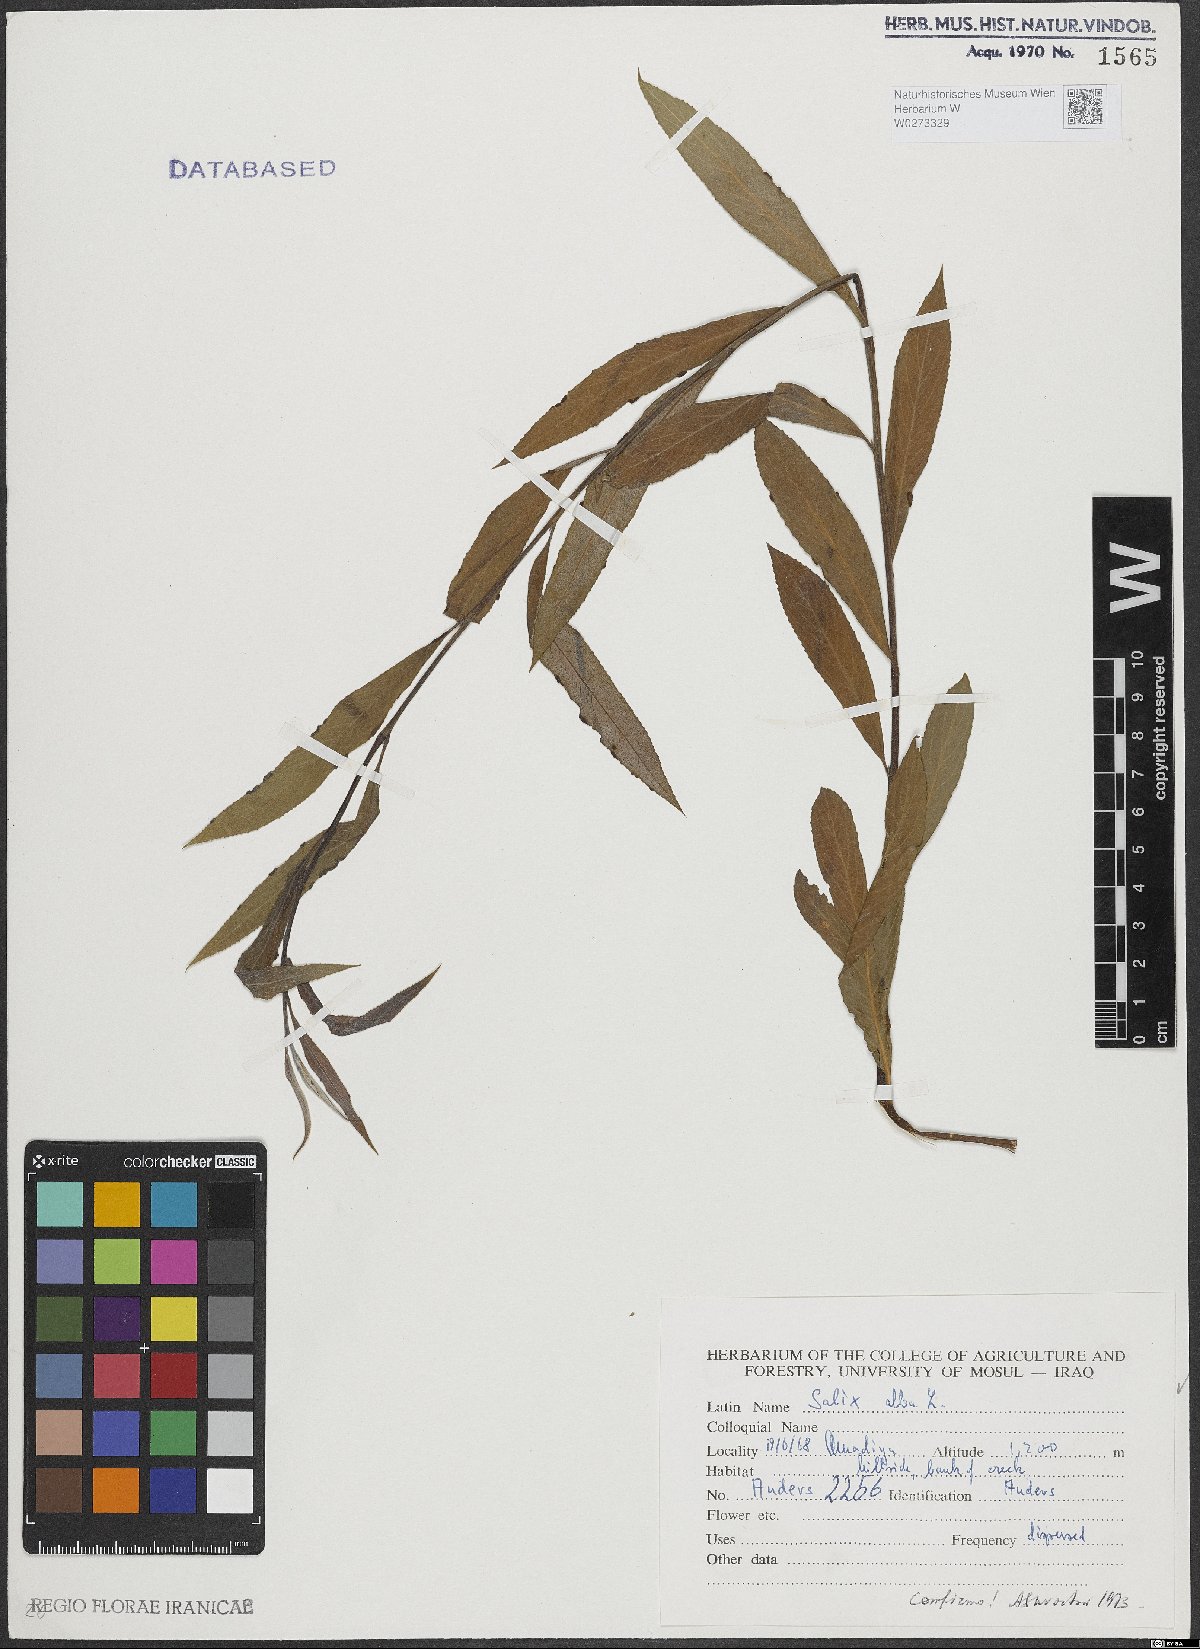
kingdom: Plantae
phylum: Tracheophyta
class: Magnoliopsida
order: Malpighiales
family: Salicaceae
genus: Salix
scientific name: Salix alba
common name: White willow
